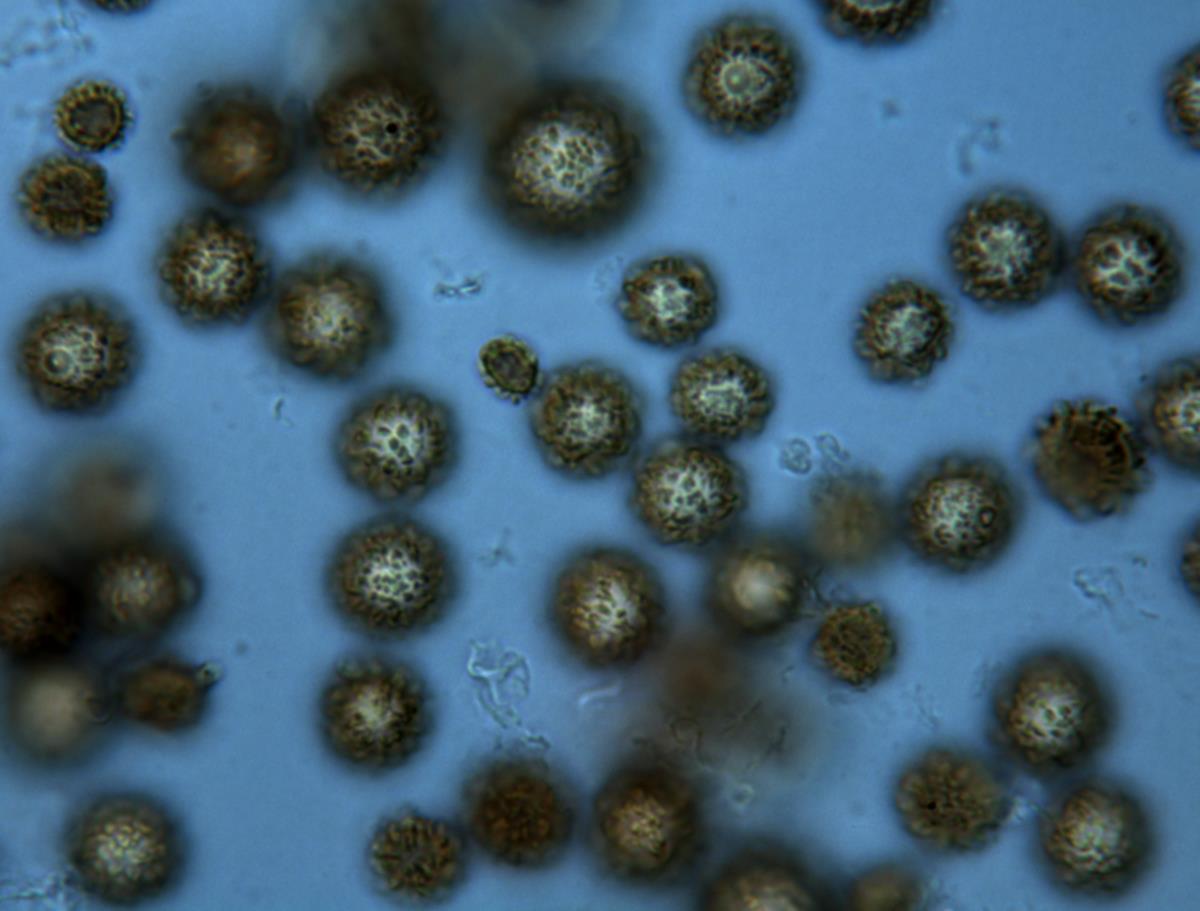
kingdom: Fungi
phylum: Basidiomycota
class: Agaricomycetes
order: Boletales
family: Sclerodermataceae
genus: Pisolithus
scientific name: Pisolithus marmoratus
